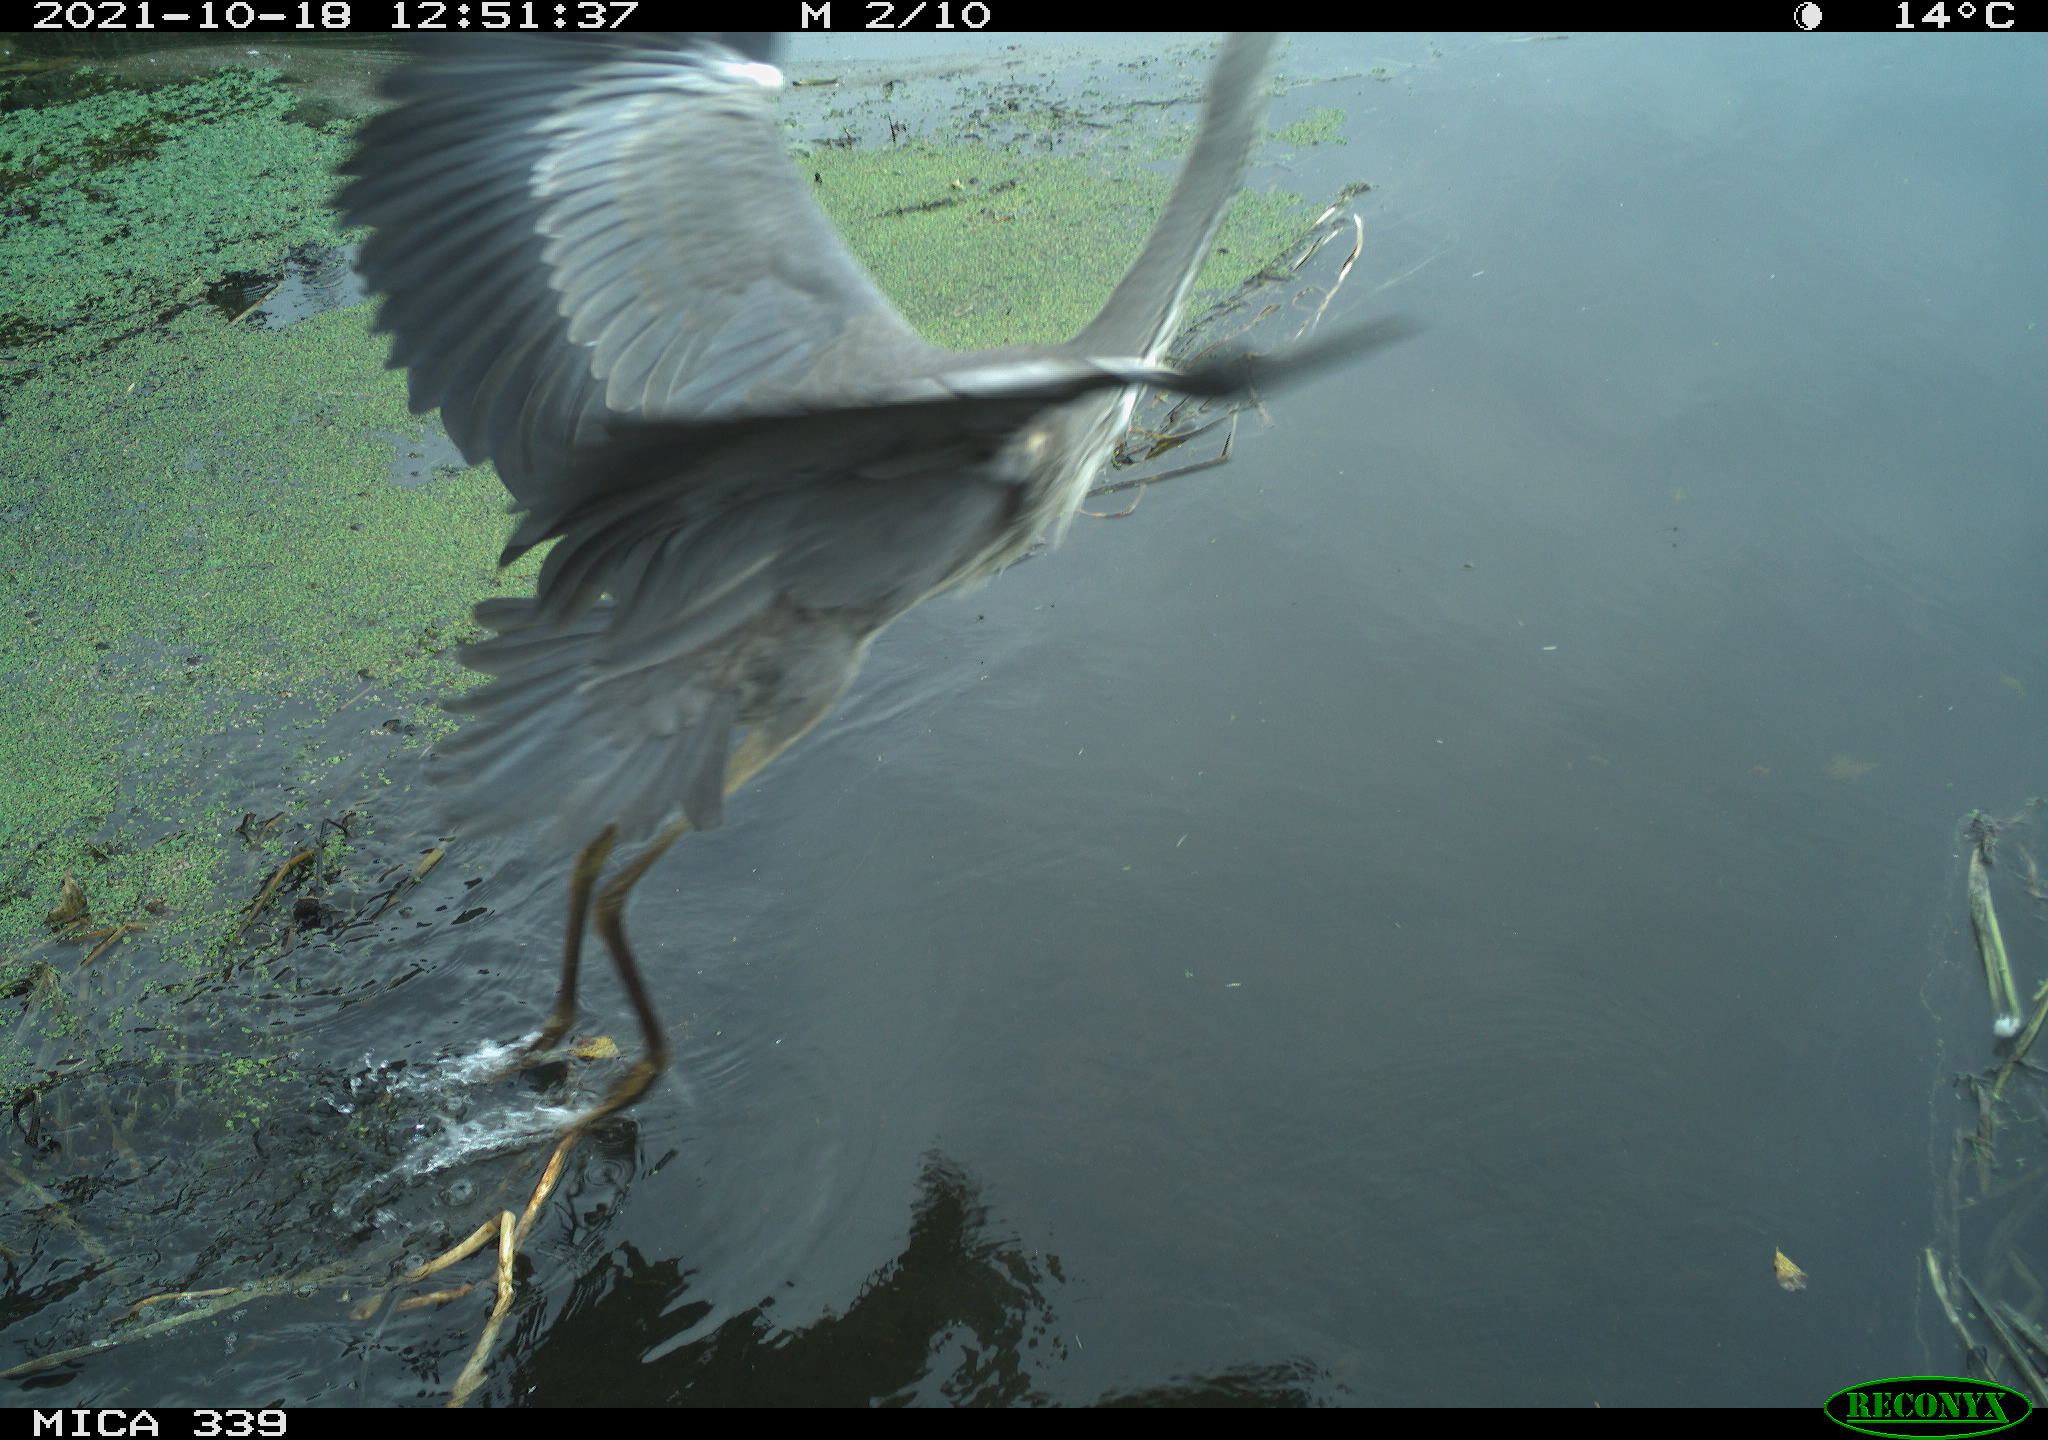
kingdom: Animalia
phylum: Chordata
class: Aves
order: Pelecaniformes
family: Ardeidae
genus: Ardea
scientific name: Ardea cinerea
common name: Grey heron
